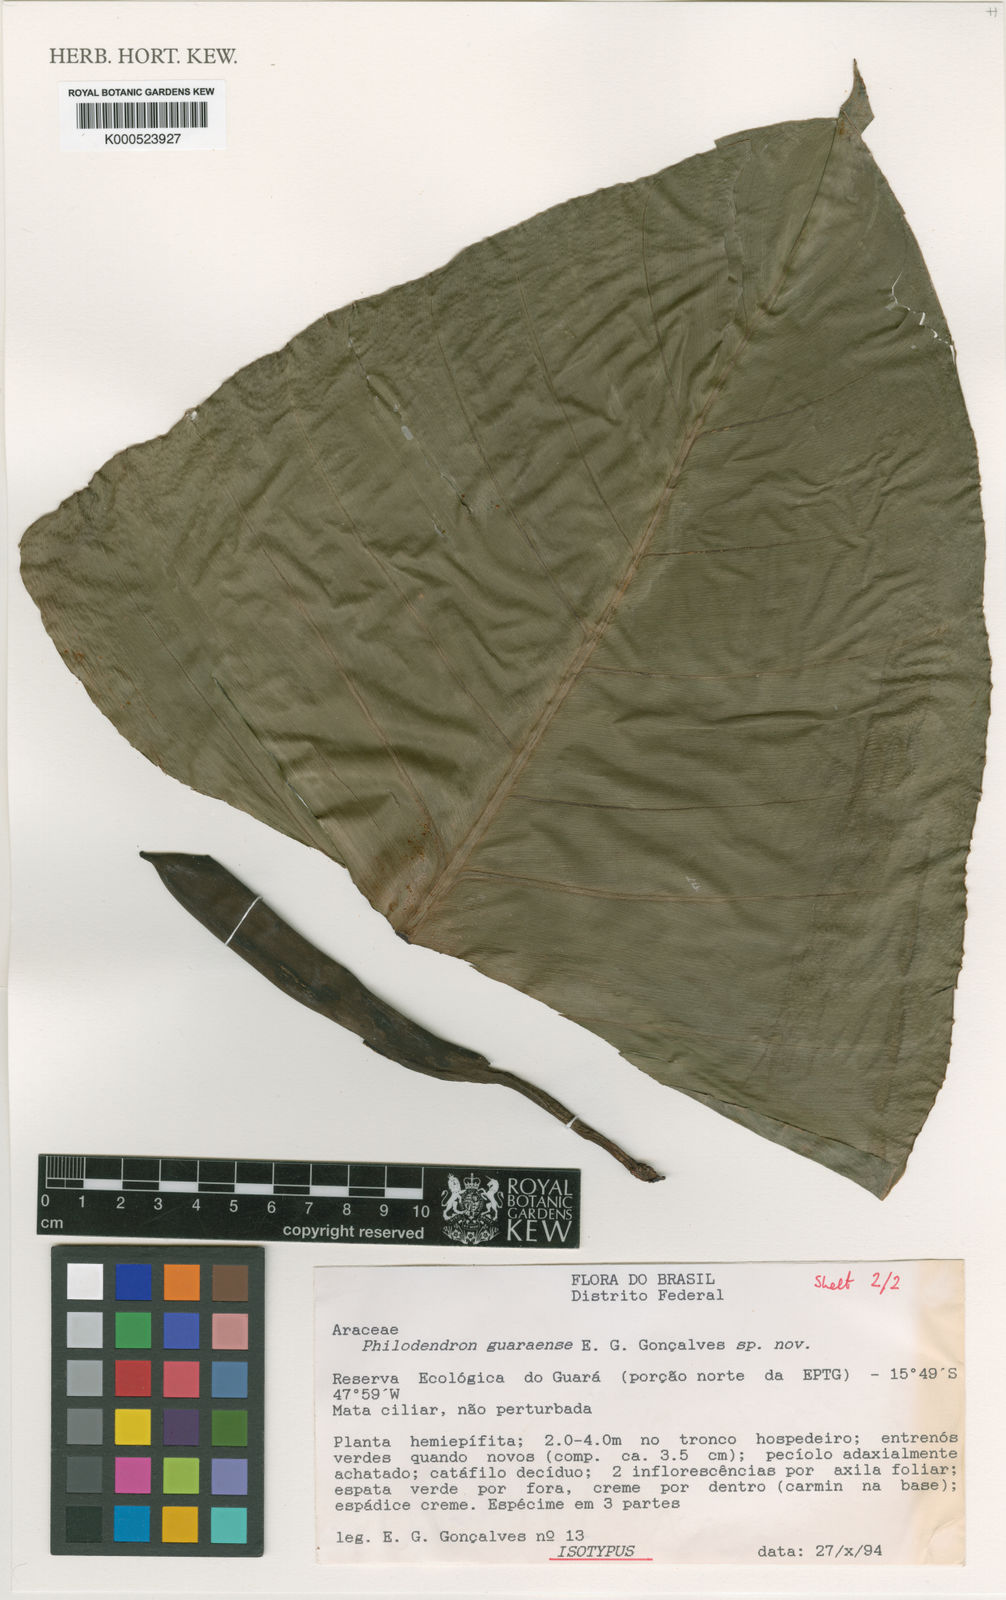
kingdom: Plantae
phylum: Tracheophyta
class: Liliopsida
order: Alismatales
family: Araceae
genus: Philodendron
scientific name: Philodendron quinquenervium
